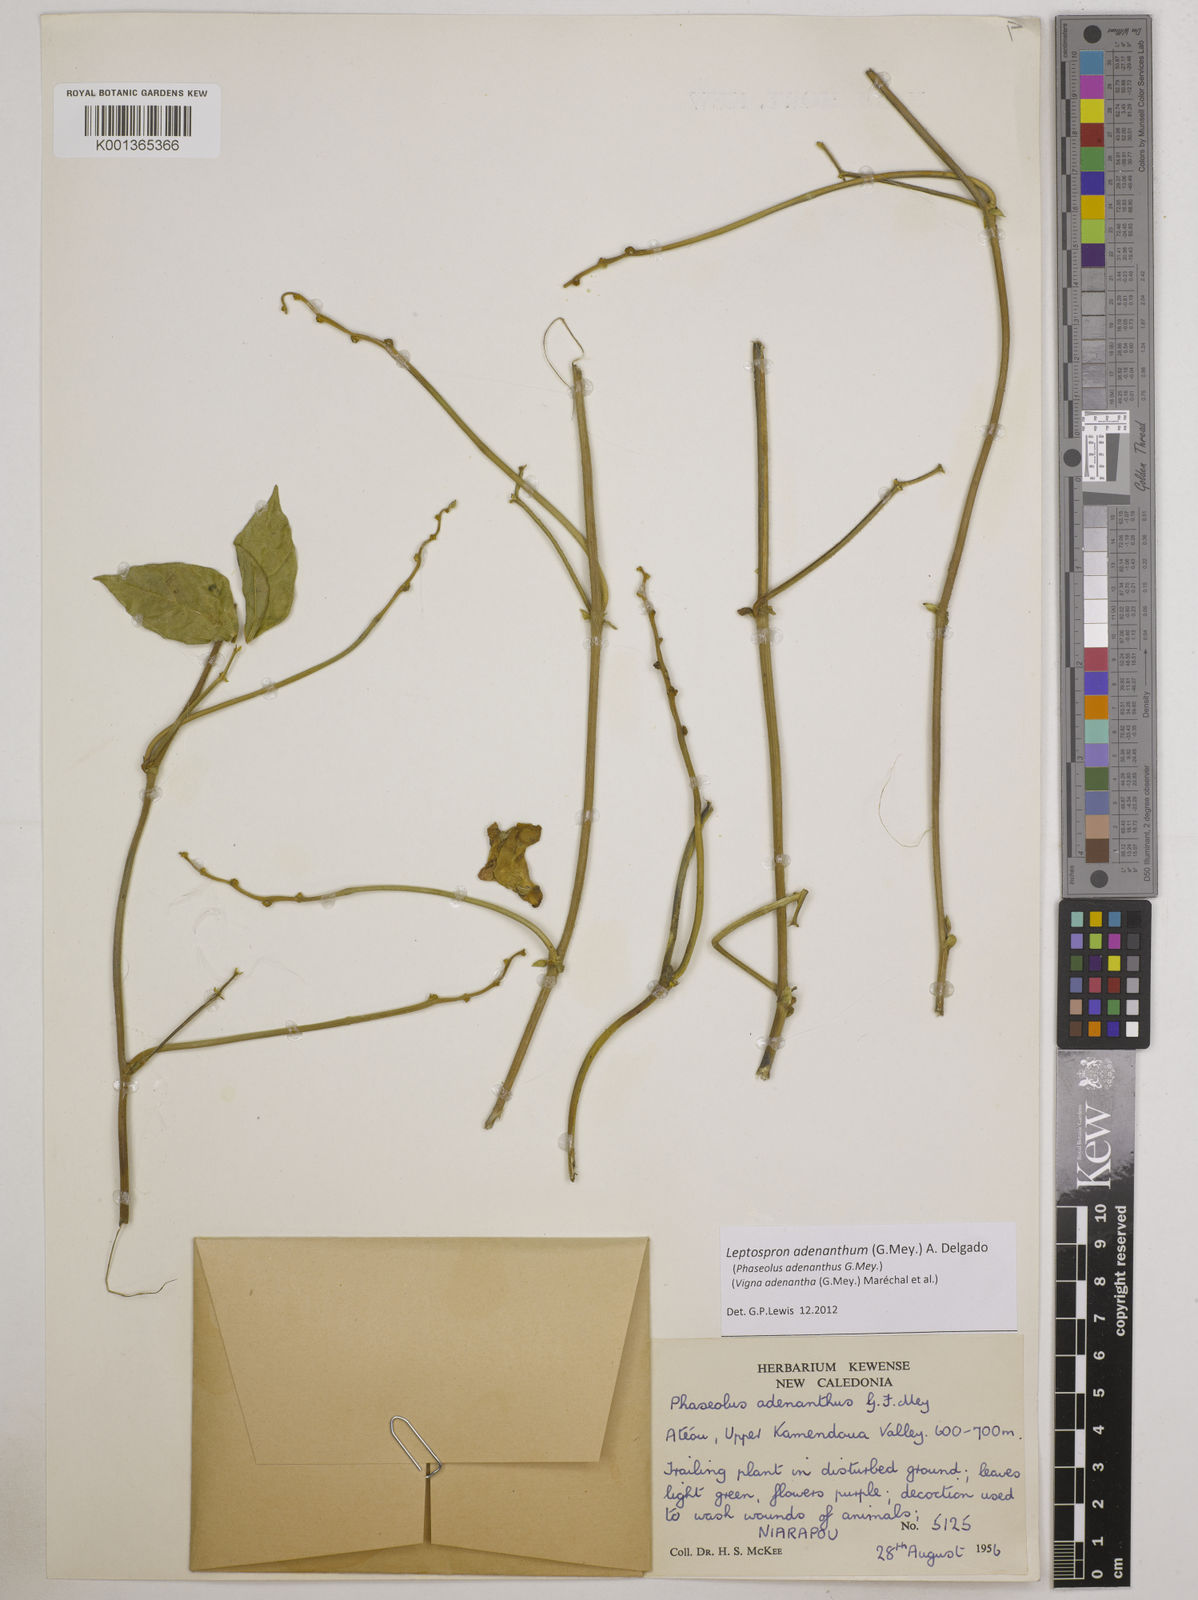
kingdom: Plantae
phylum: Tracheophyta
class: Magnoliopsida
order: Fabales
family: Fabaceae
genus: Leptospron
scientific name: Leptospron adenanthum
